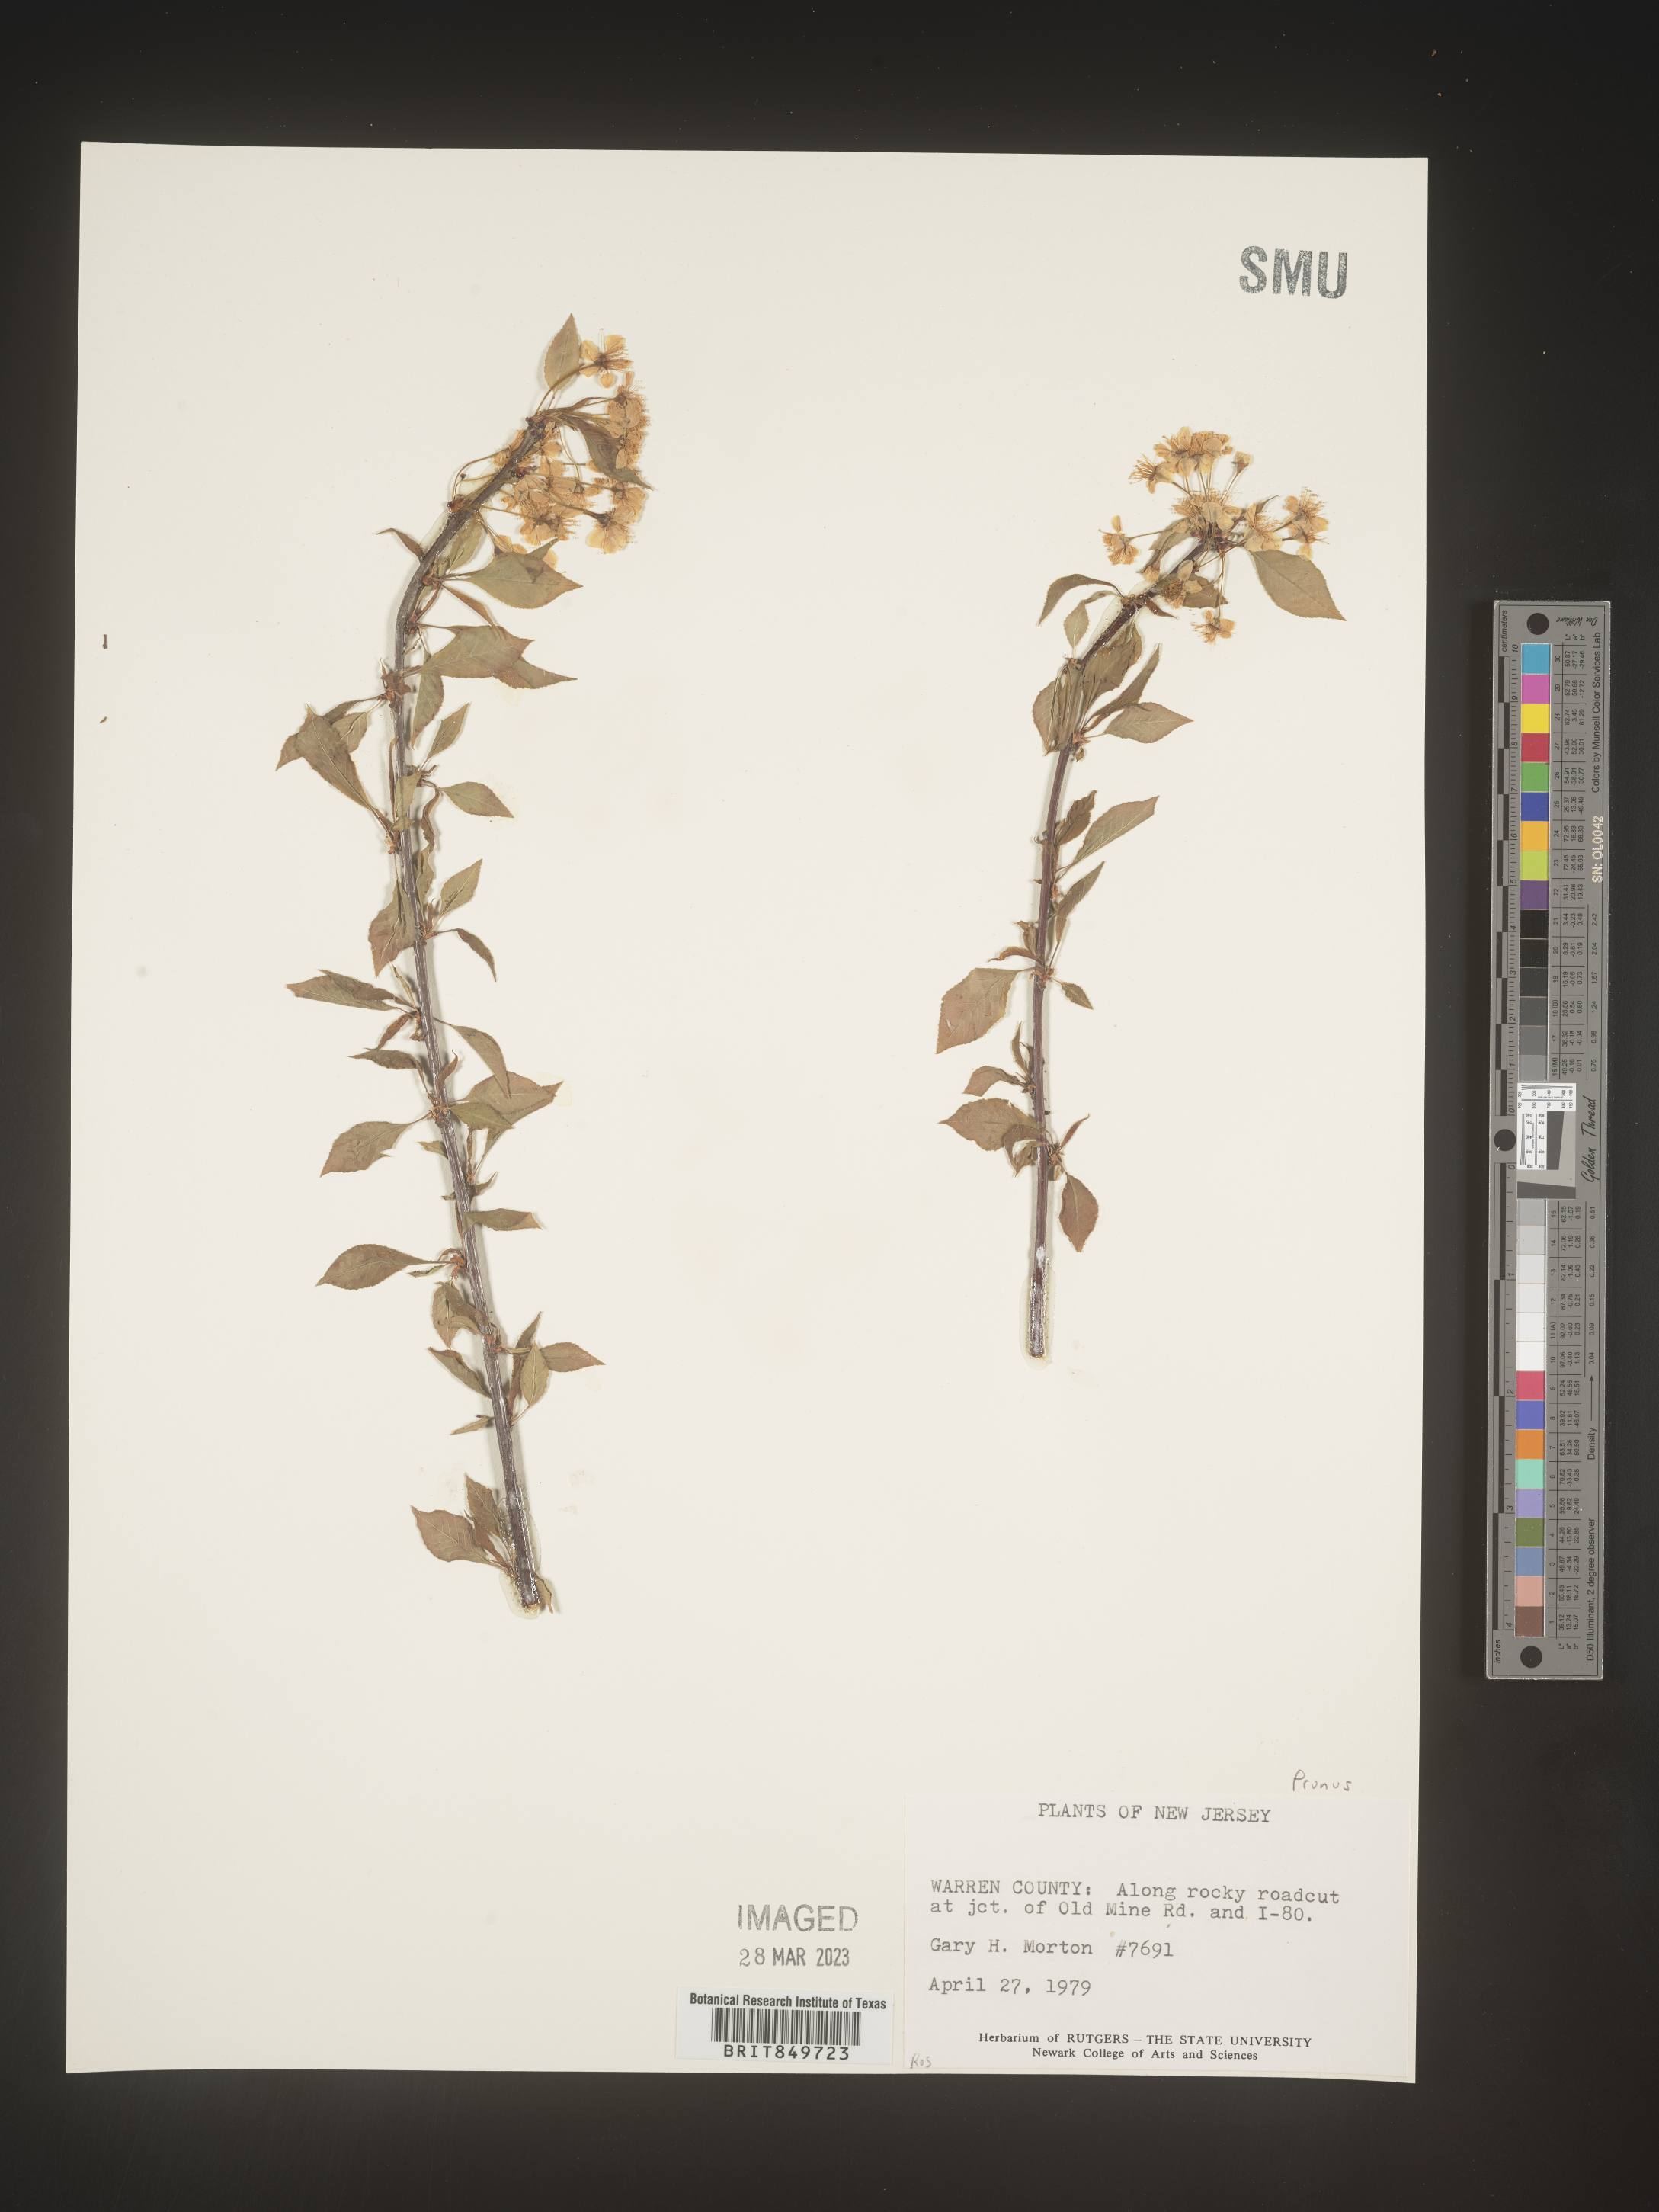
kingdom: Plantae
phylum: Tracheophyta
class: Magnoliopsida
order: Rosales
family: Rosaceae
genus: Prunus
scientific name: Prunus
